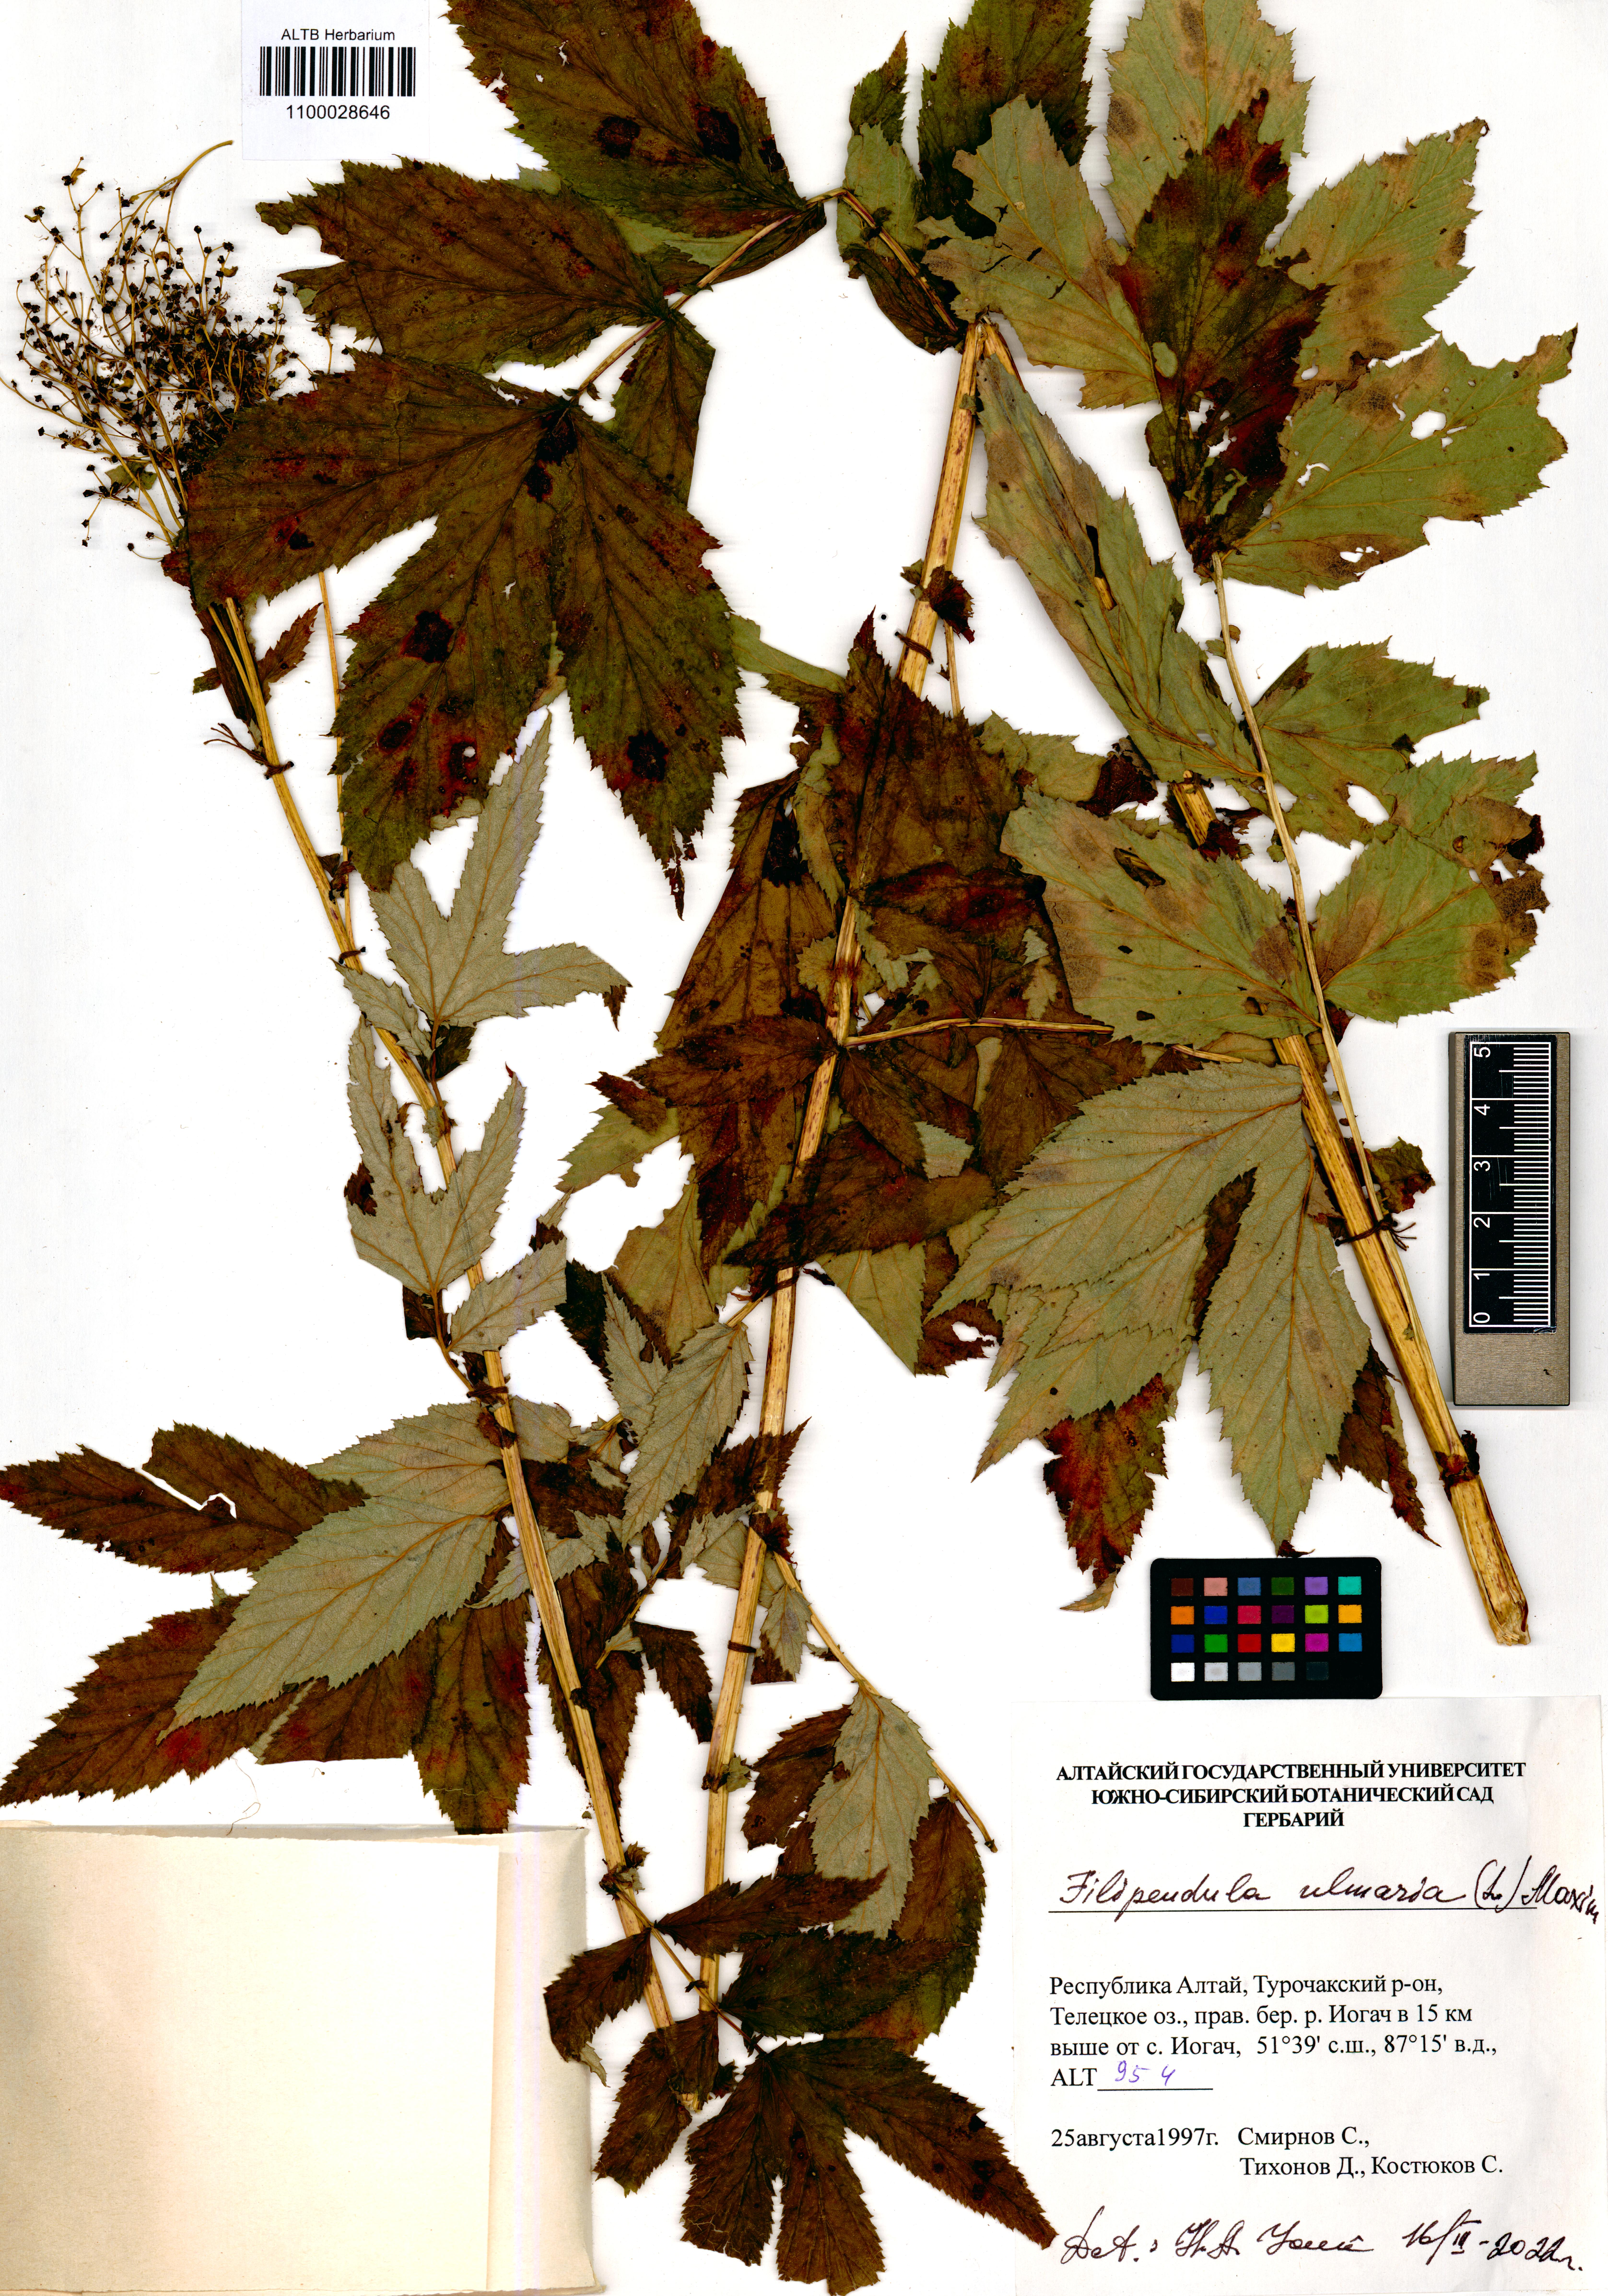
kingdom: Plantae
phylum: Tracheophyta
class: Magnoliopsida
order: Rosales
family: Rosaceae
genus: Filipendula
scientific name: Filipendula ulmaria
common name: Meadowsweet
